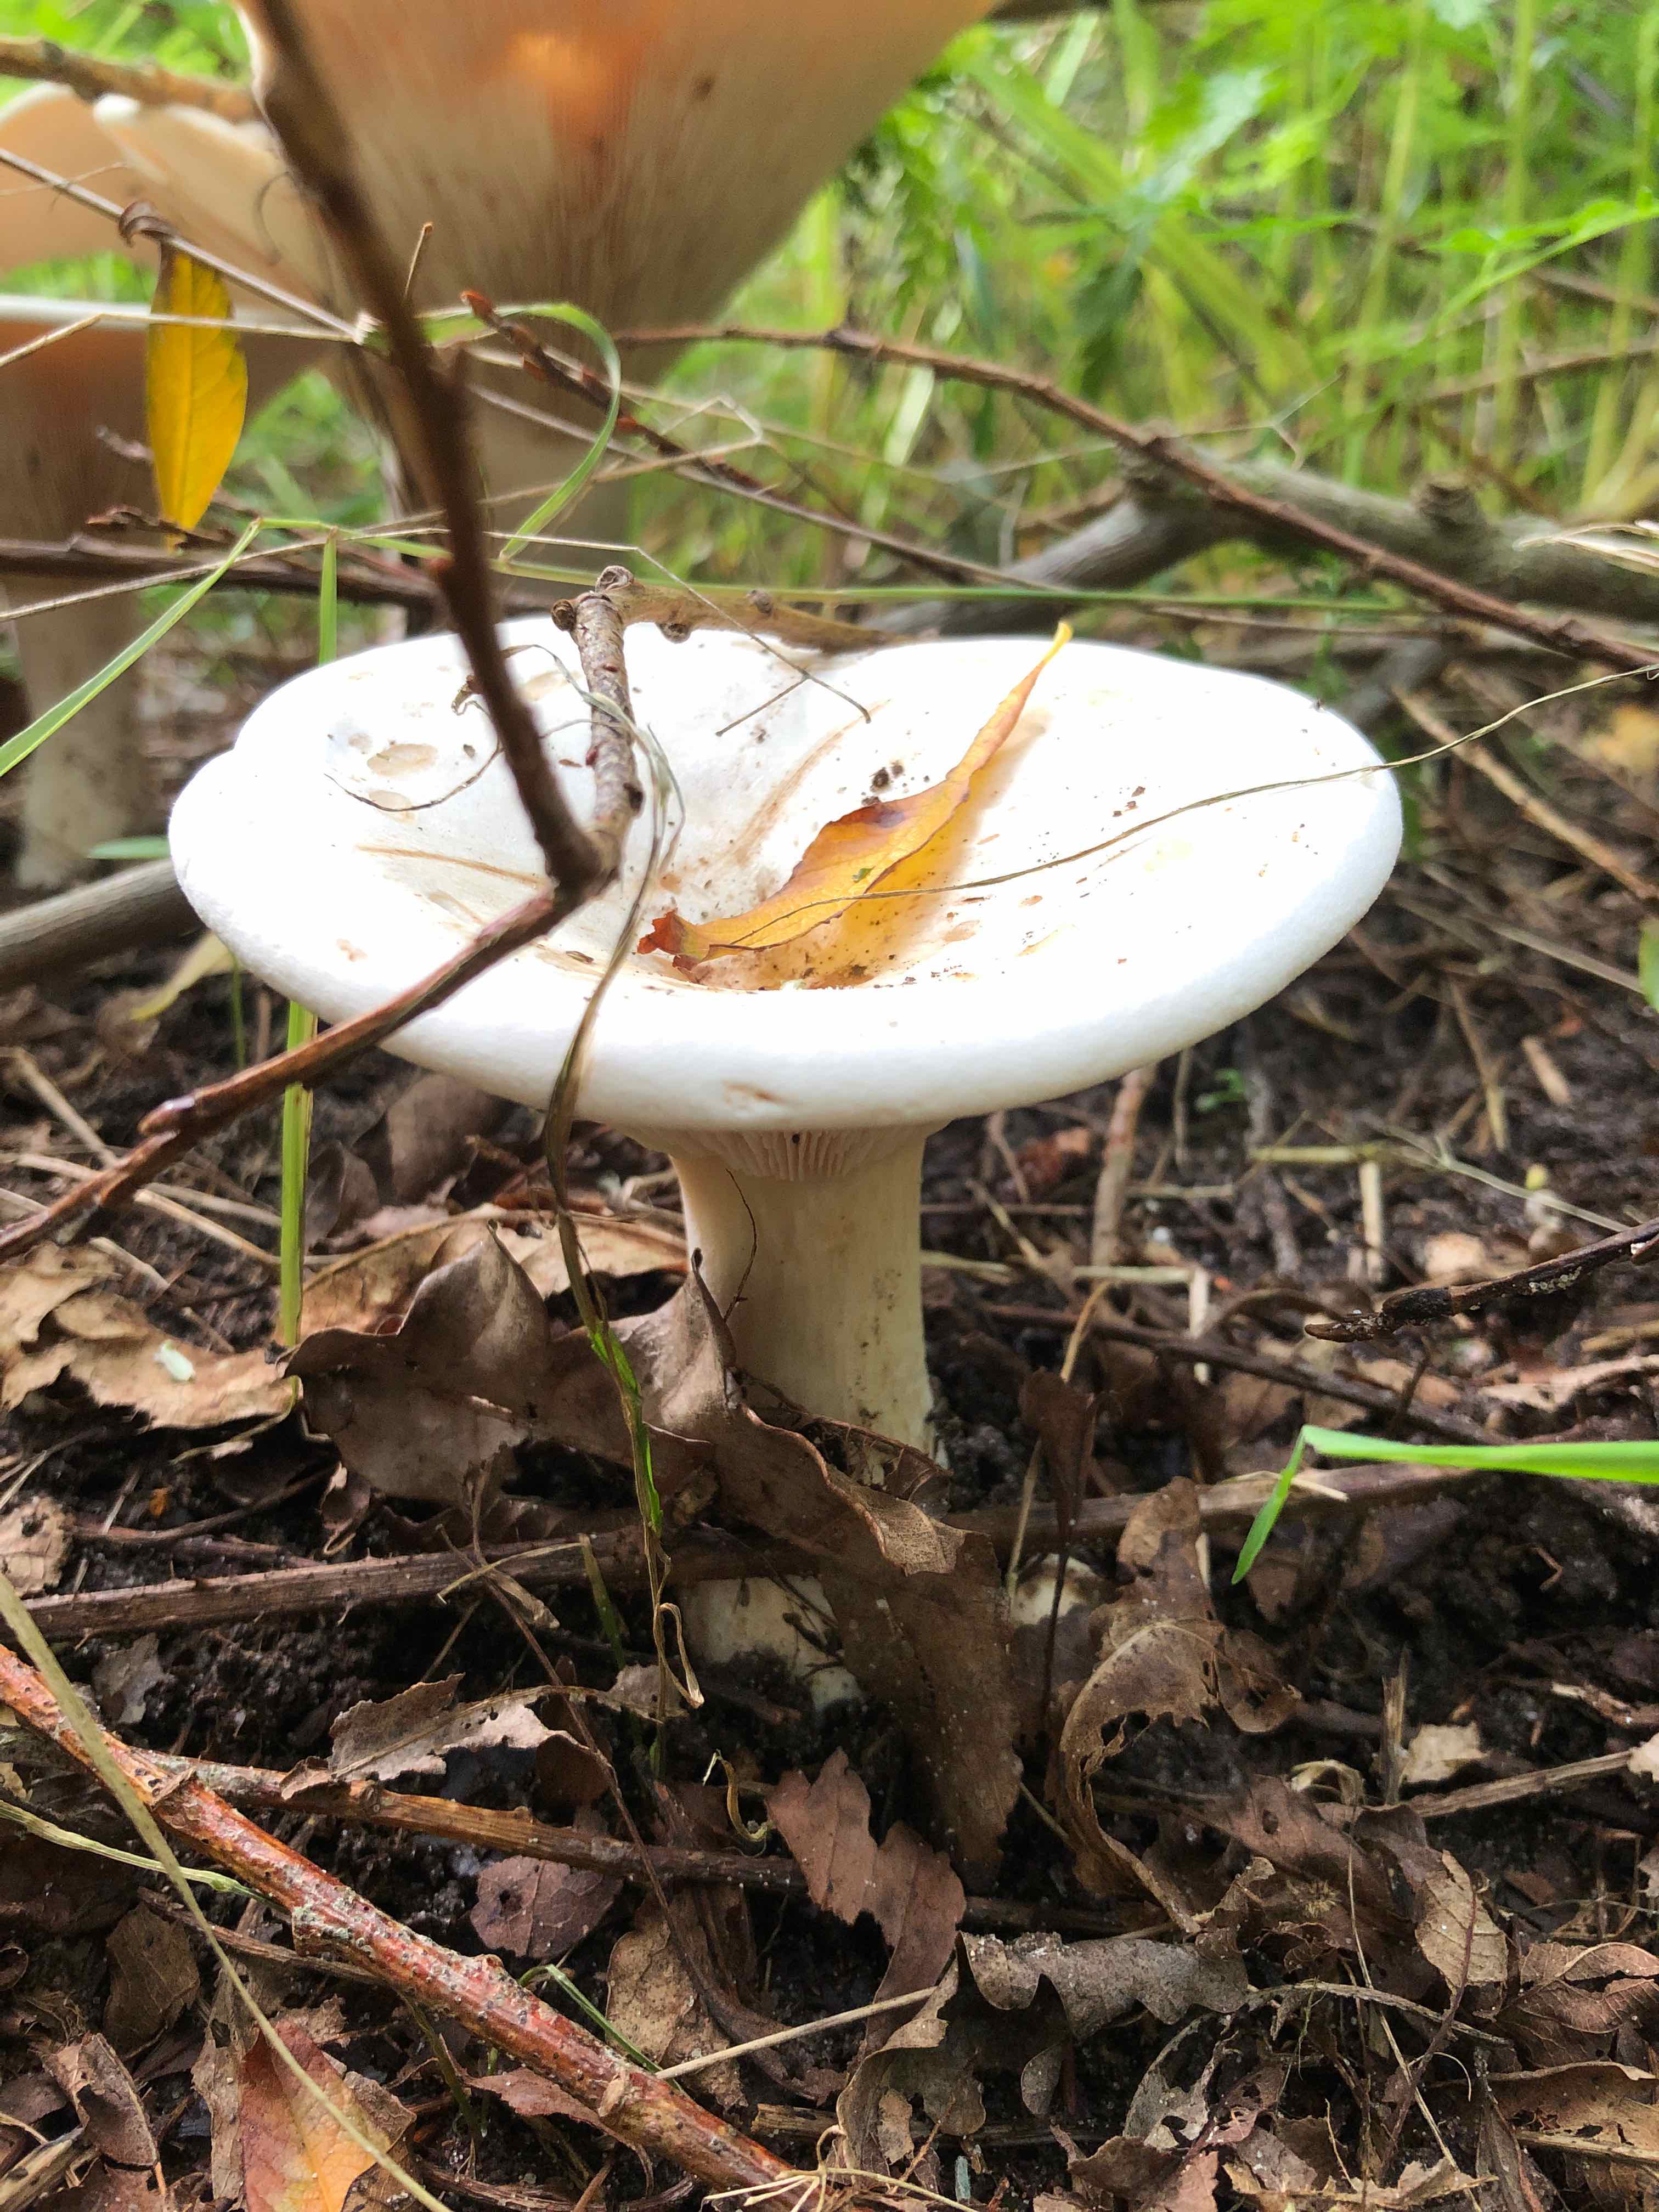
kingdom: Fungi
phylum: Basidiomycota
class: Agaricomycetes
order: Agaricales
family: Tricholomataceae
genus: Aspropaxillus
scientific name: Aspropaxillus giganteus
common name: kæmpe-tragtridderhat
